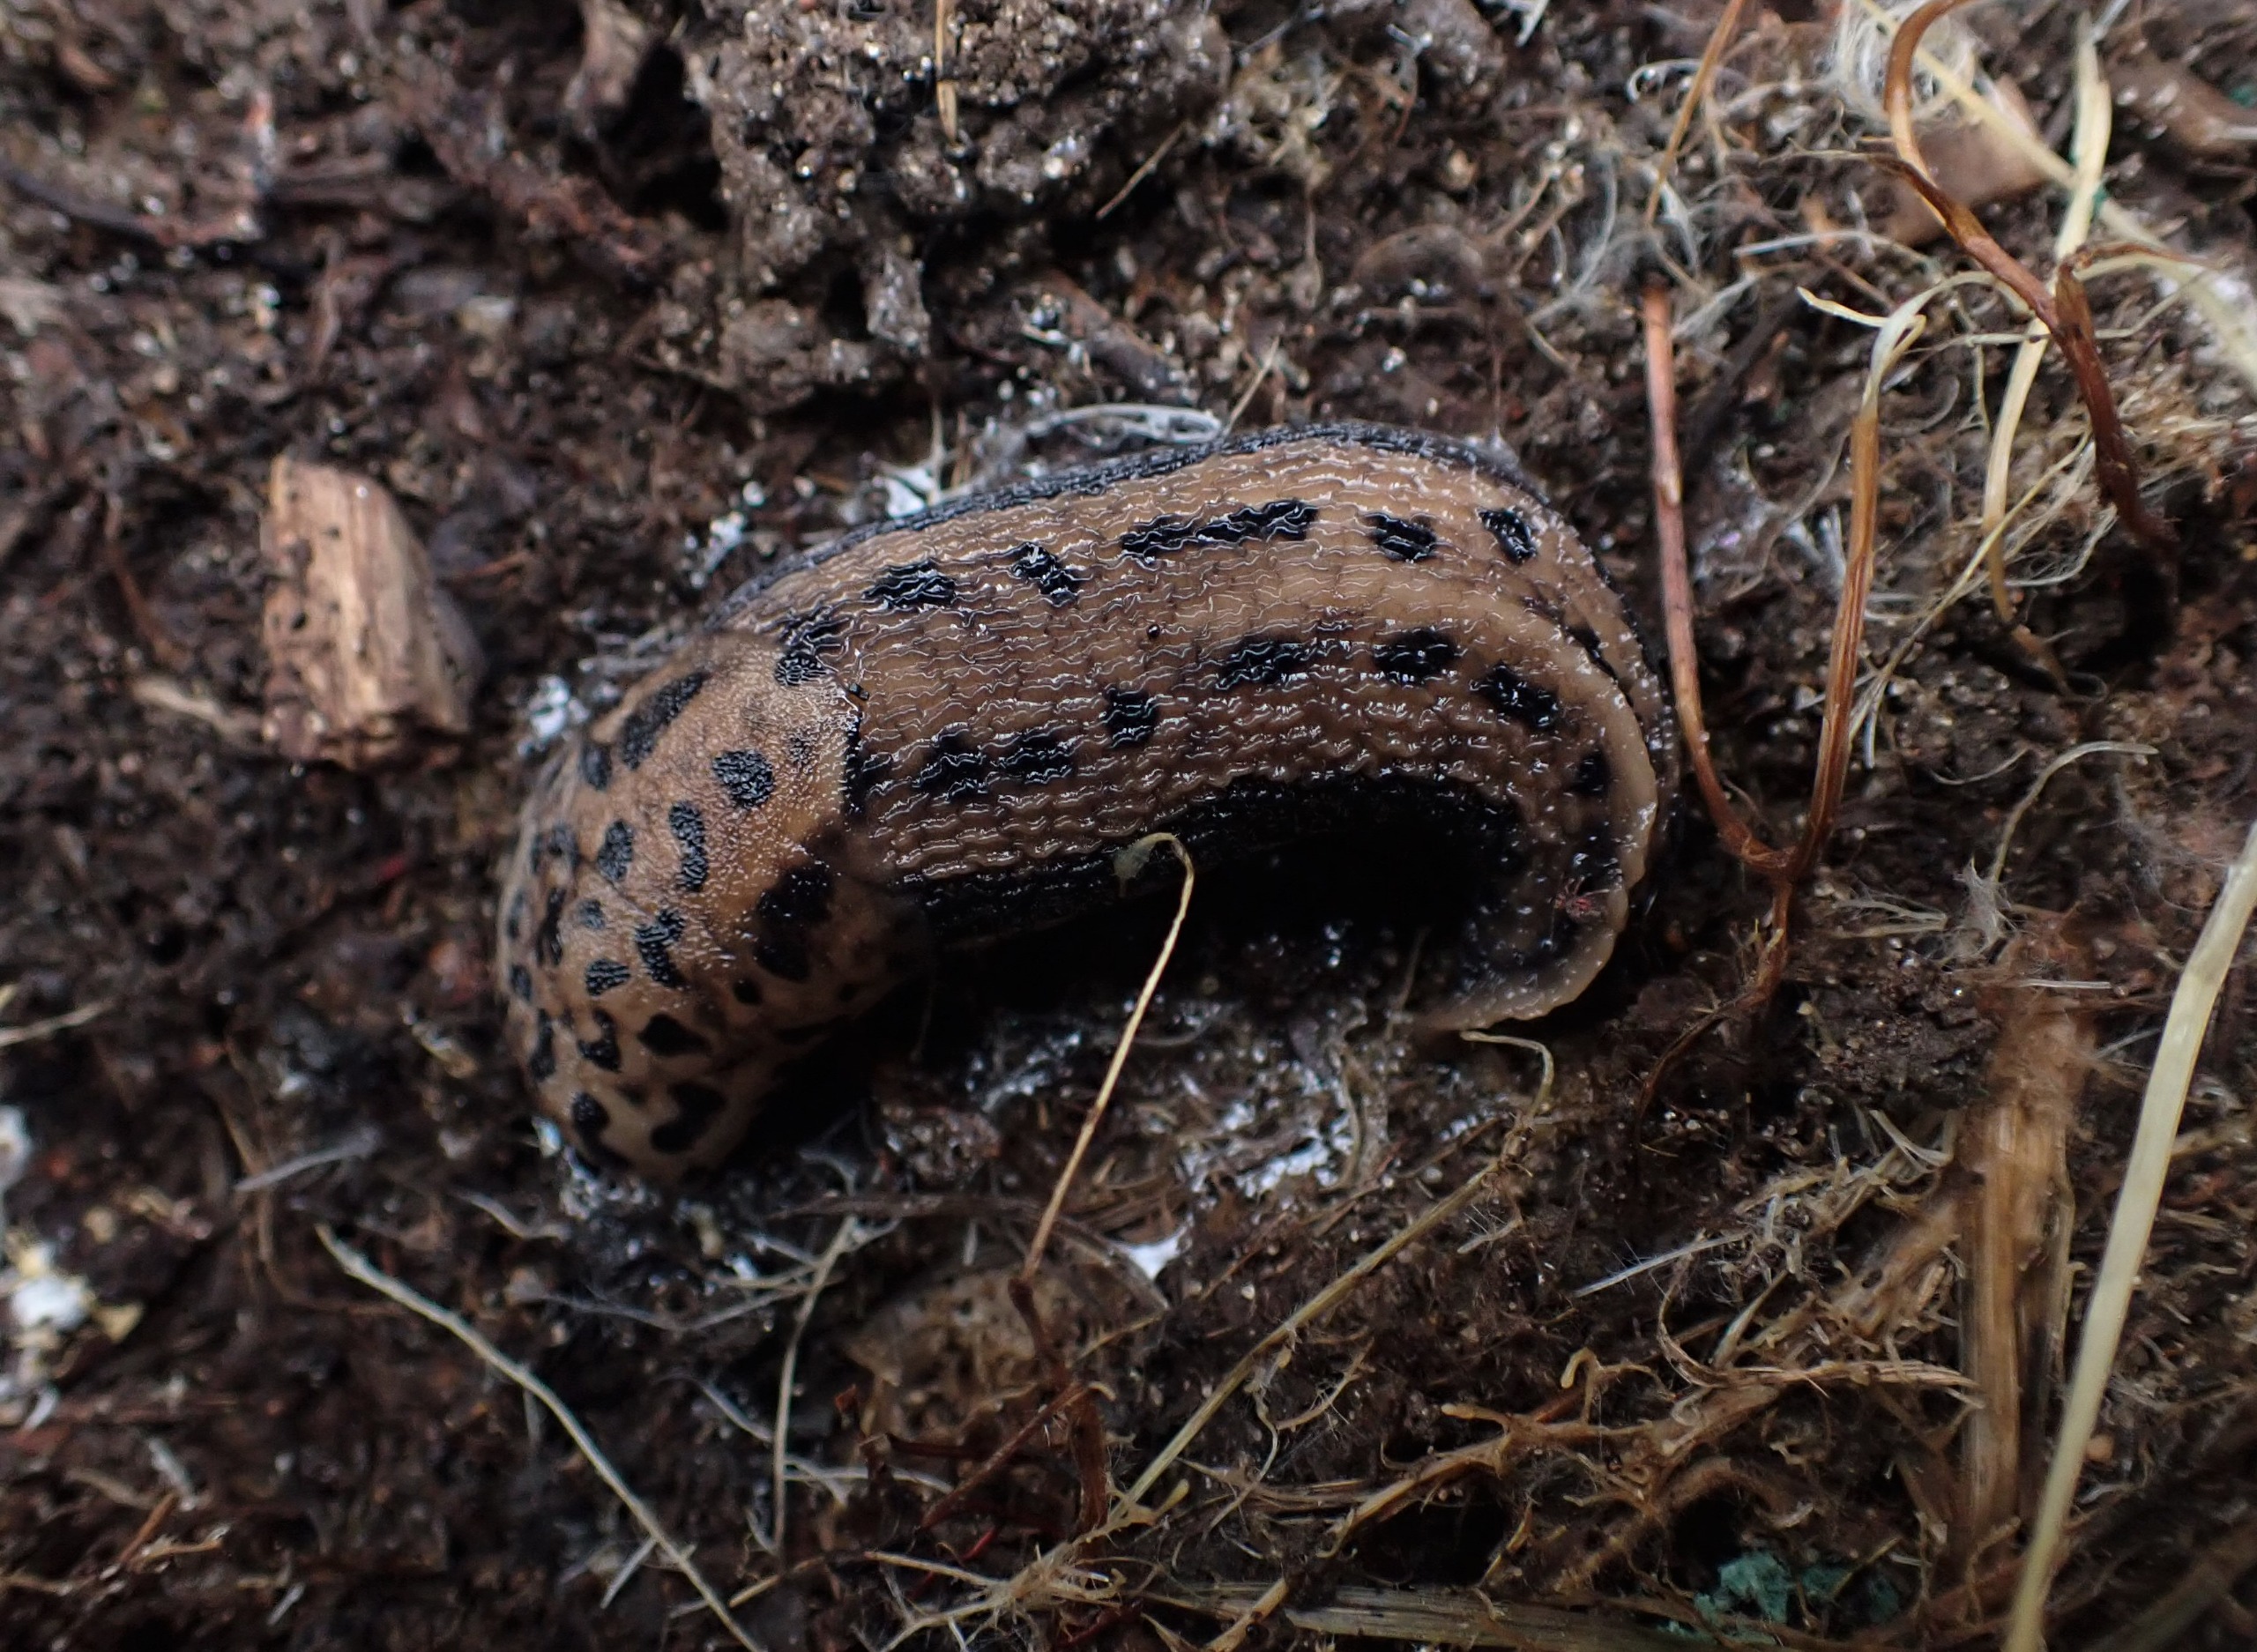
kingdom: Animalia
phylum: Mollusca
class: Gastropoda
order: Stylommatophora
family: Limacidae
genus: Limax
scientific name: Limax maximus
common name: Pantersnegl
